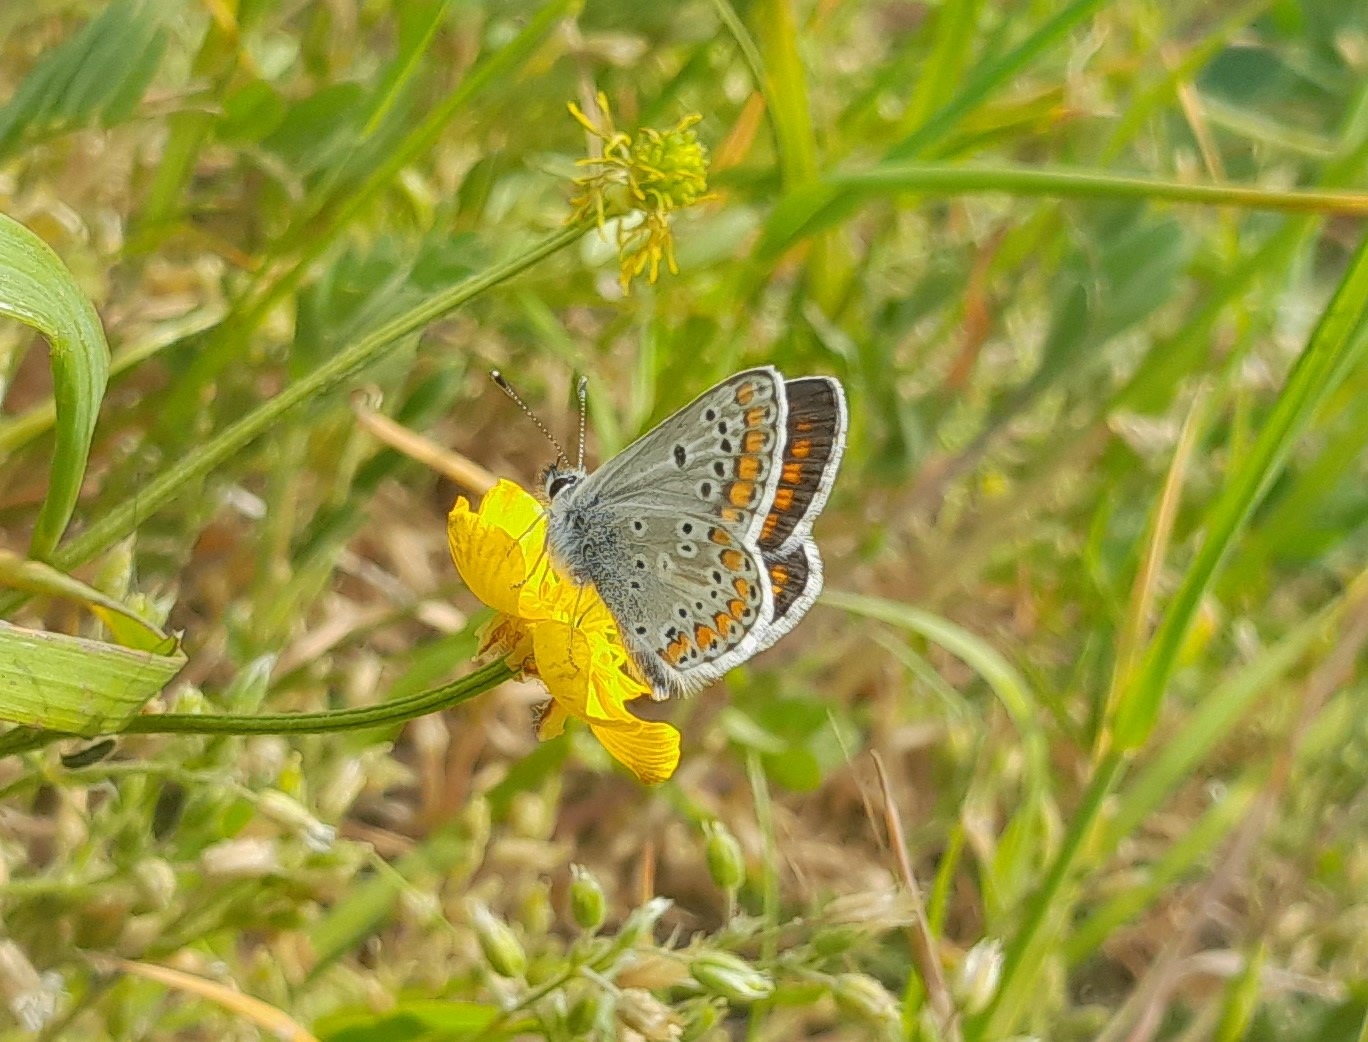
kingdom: Animalia
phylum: Arthropoda
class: Insecta
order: Lepidoptera
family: Lycaenidae
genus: Aricia
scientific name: Aricia agestis
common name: Rødplettet blåfugl
